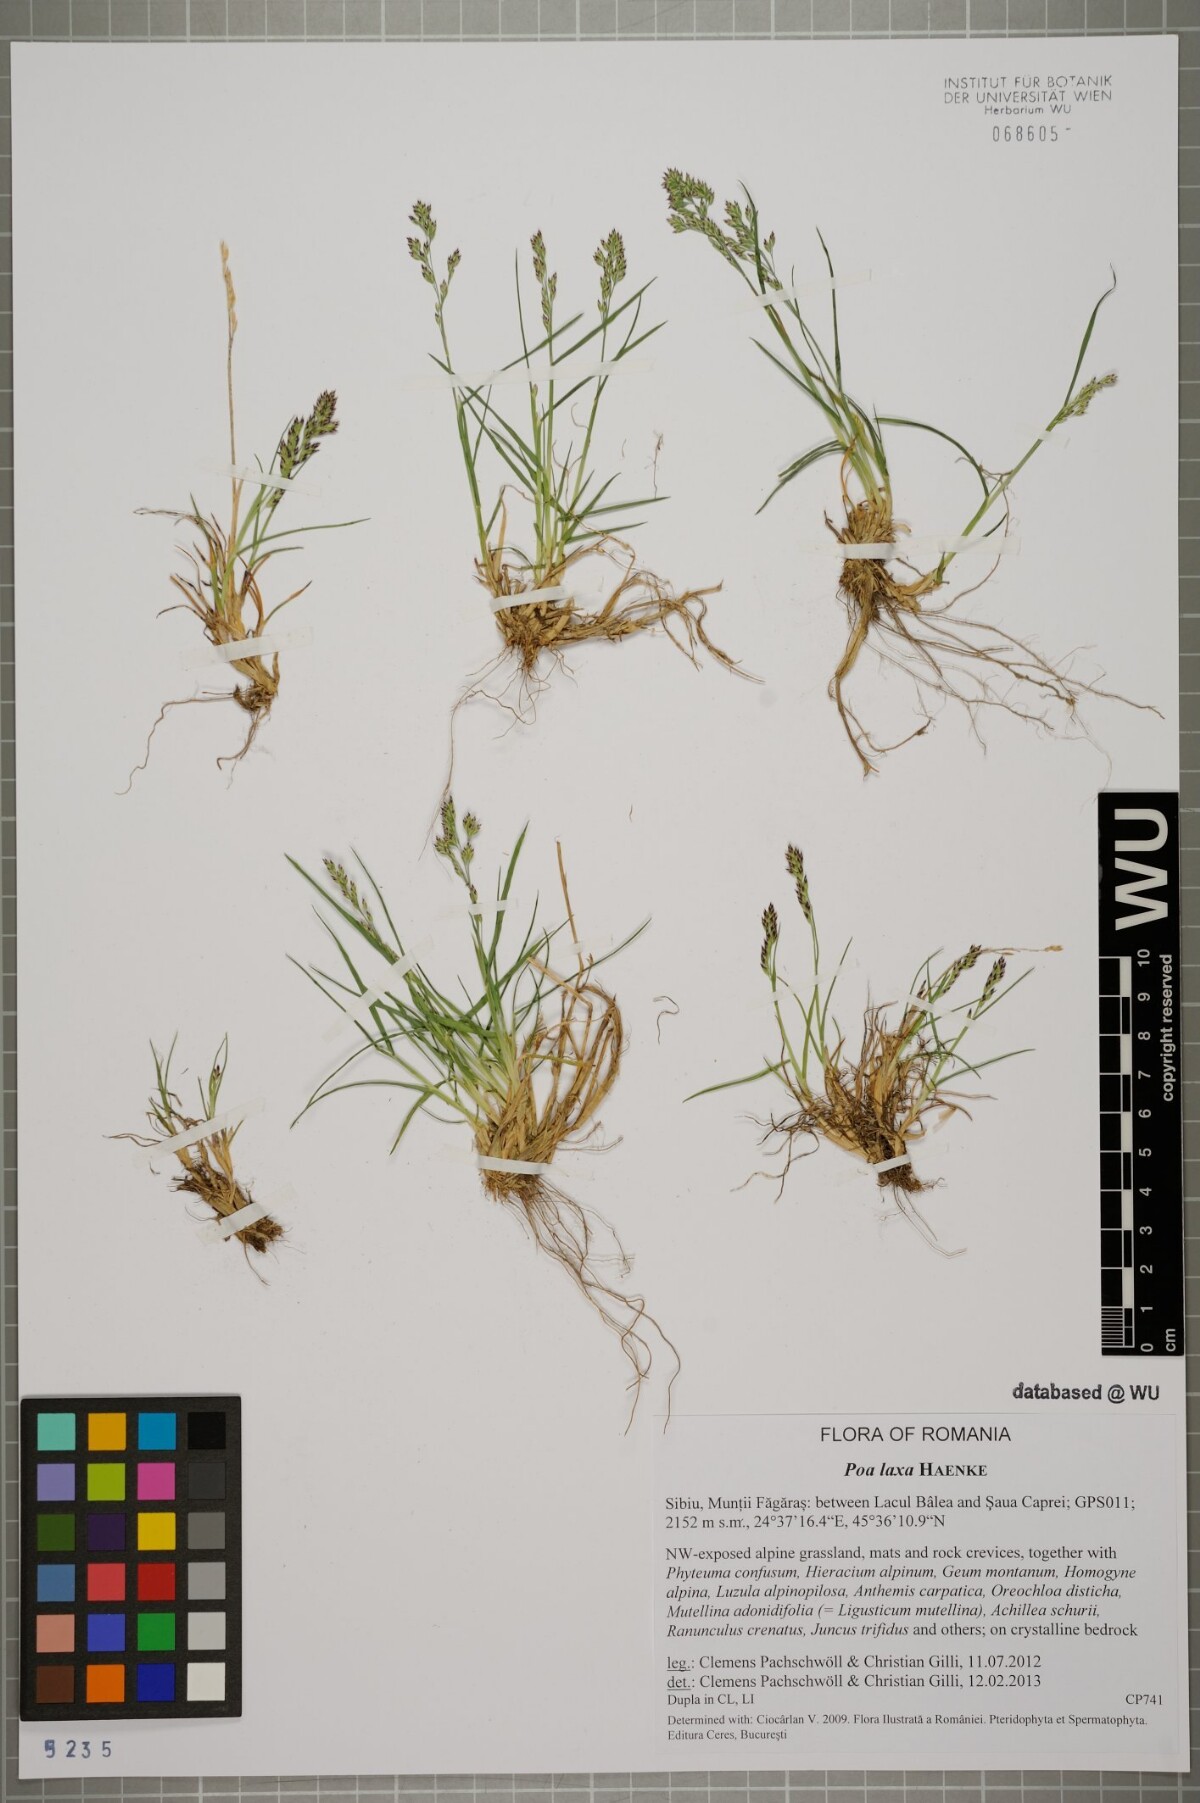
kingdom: Plantae
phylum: Tracheophyta
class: Liliopsida
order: Poales
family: Poaceae
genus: Poa
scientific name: Poa laxa
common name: Lax bluegrass
